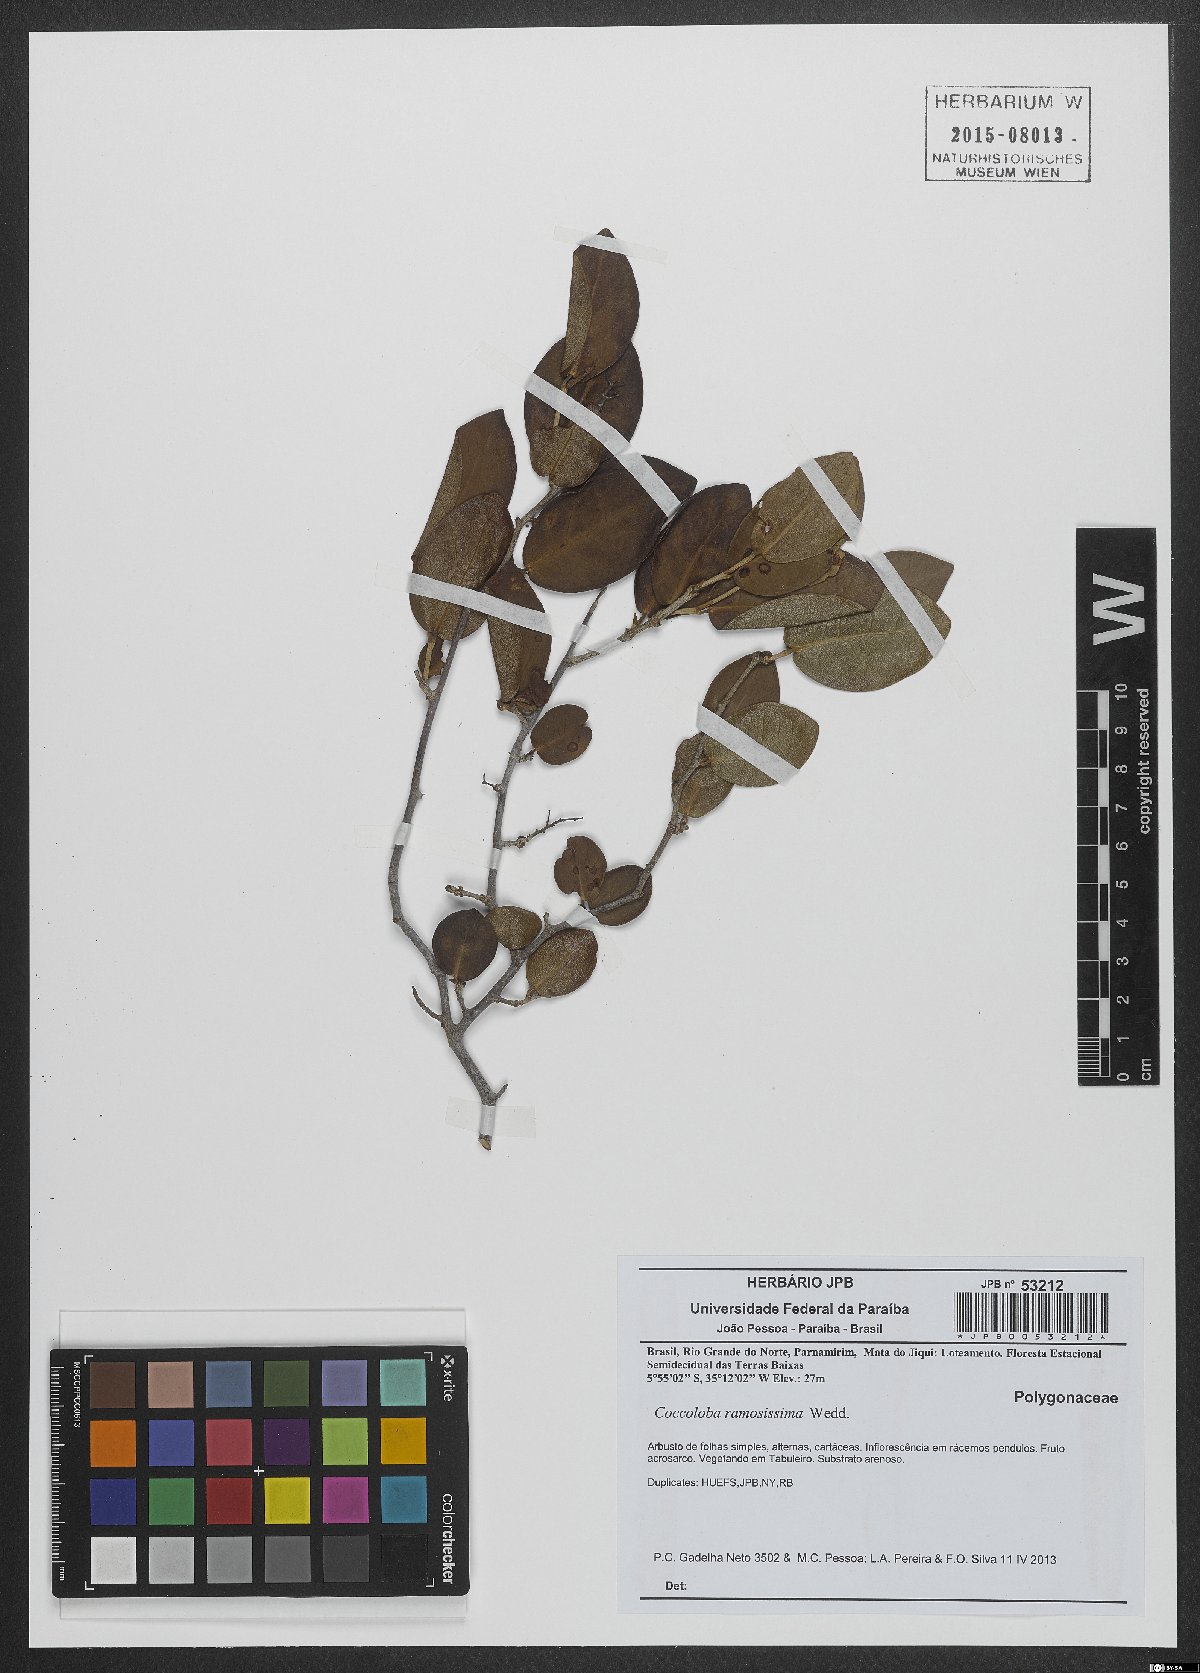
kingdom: Plantae
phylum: Tracheophyta
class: Magnoliopsida
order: Caryophyllales
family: Polygonaceae
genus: Coccoloba
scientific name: Coccoloba ramosisissima
